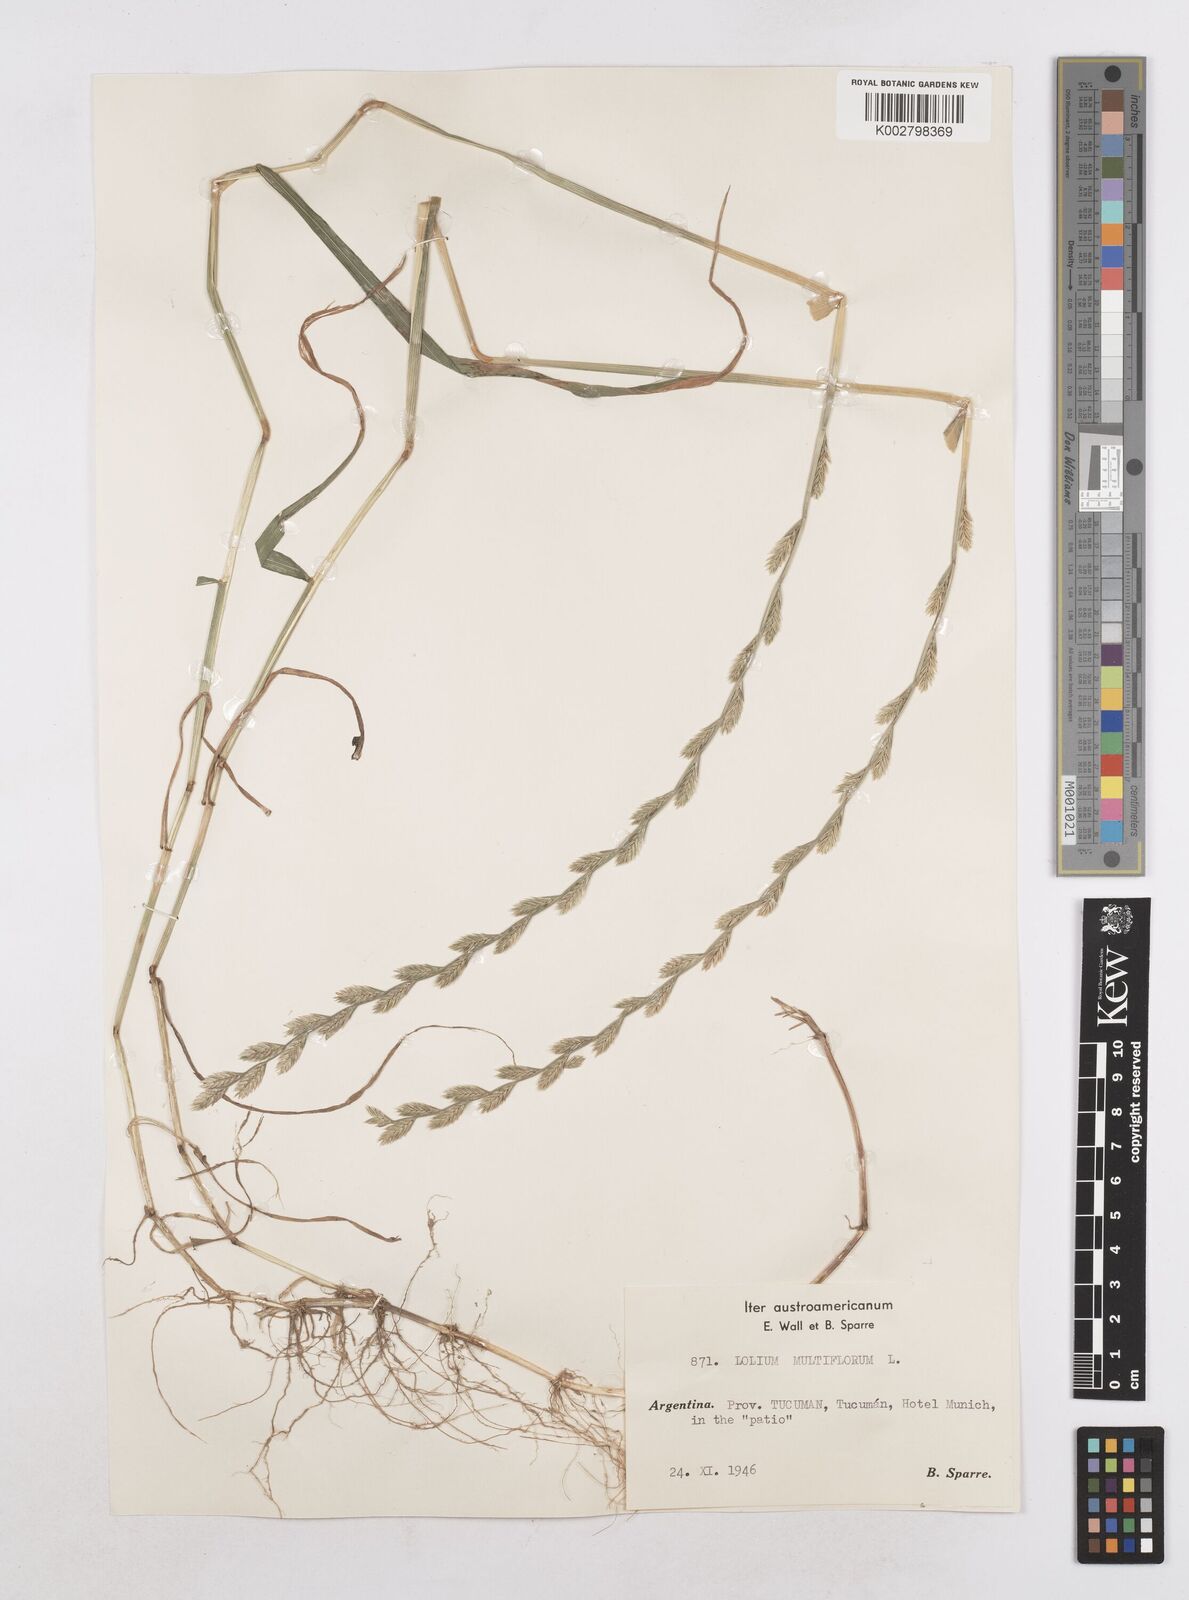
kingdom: Plantae
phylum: Tracheophyta
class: Liliopsida
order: Poales
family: Poaceae
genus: Lolium
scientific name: Lolium multiflorum
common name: Annual ryegrass
